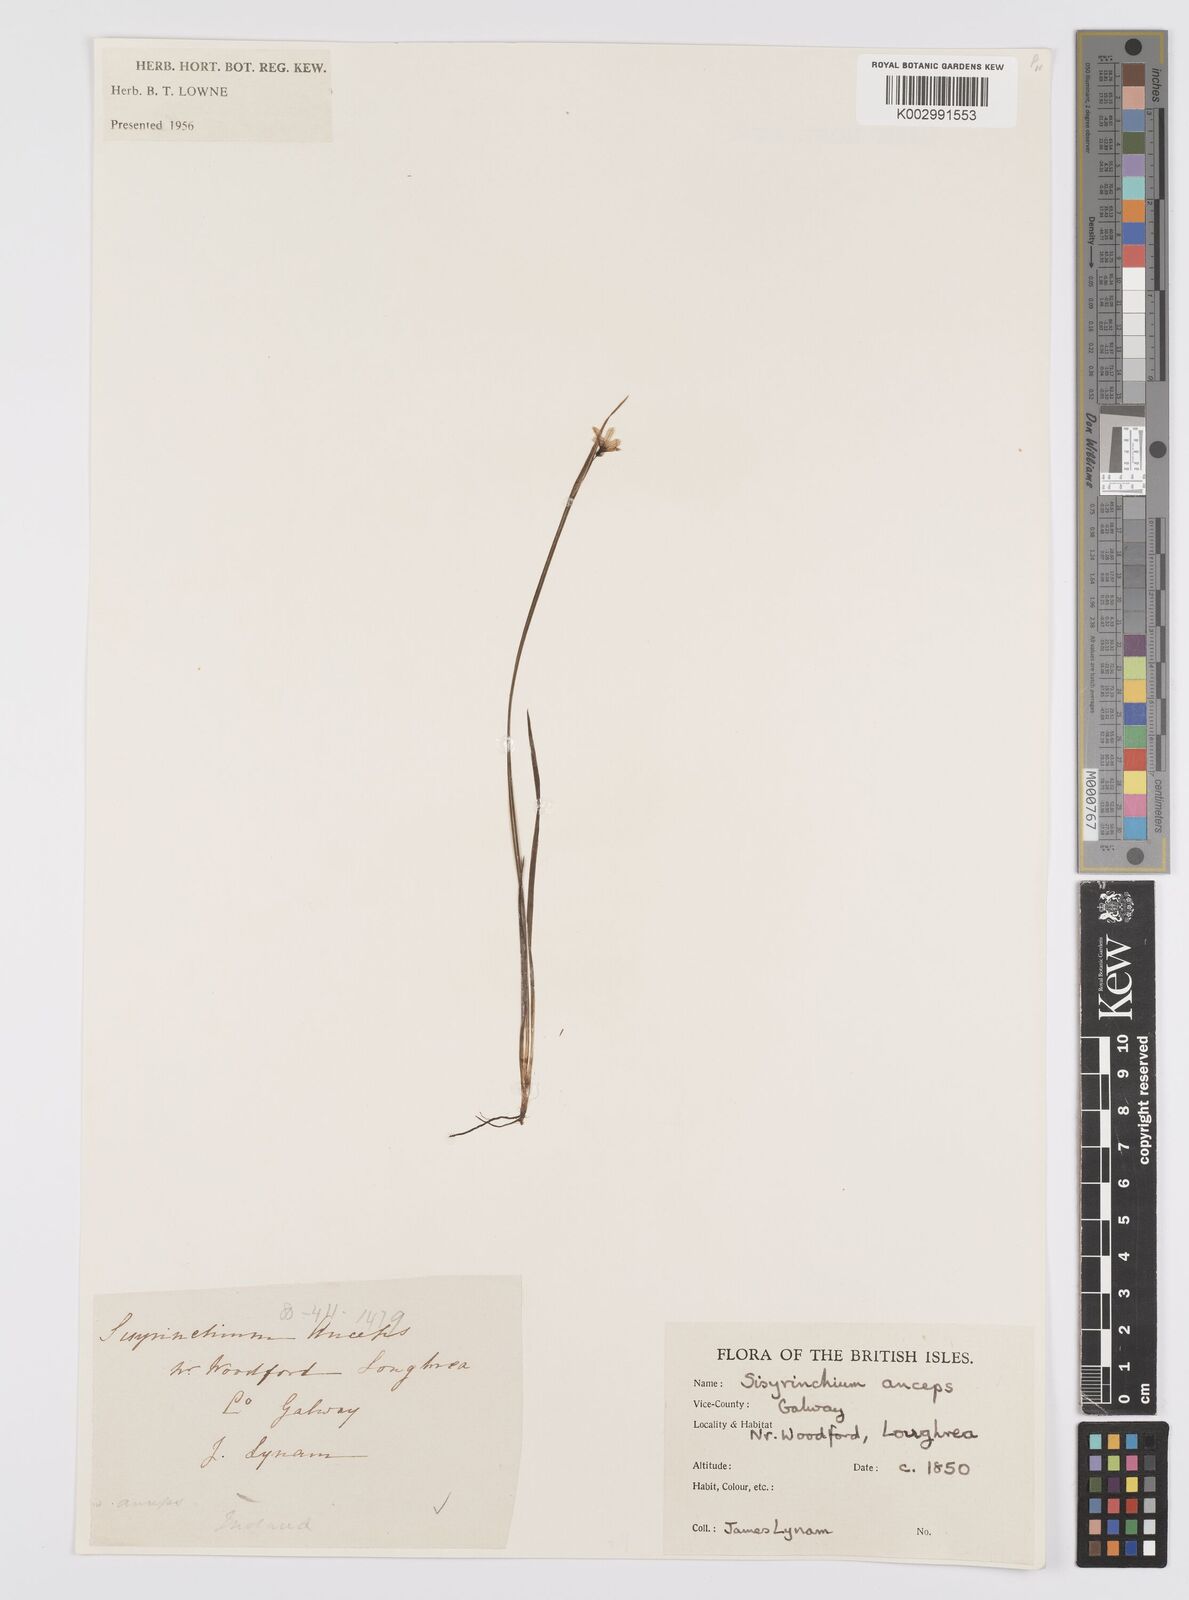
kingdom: Plantae
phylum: Tracheophyta
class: Liliopsida
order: Asparagales
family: Iridaceae
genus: Sisyrinchium
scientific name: Sisyrinchium angustifolium
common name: Narrow-leaf blue-eyed-grass
